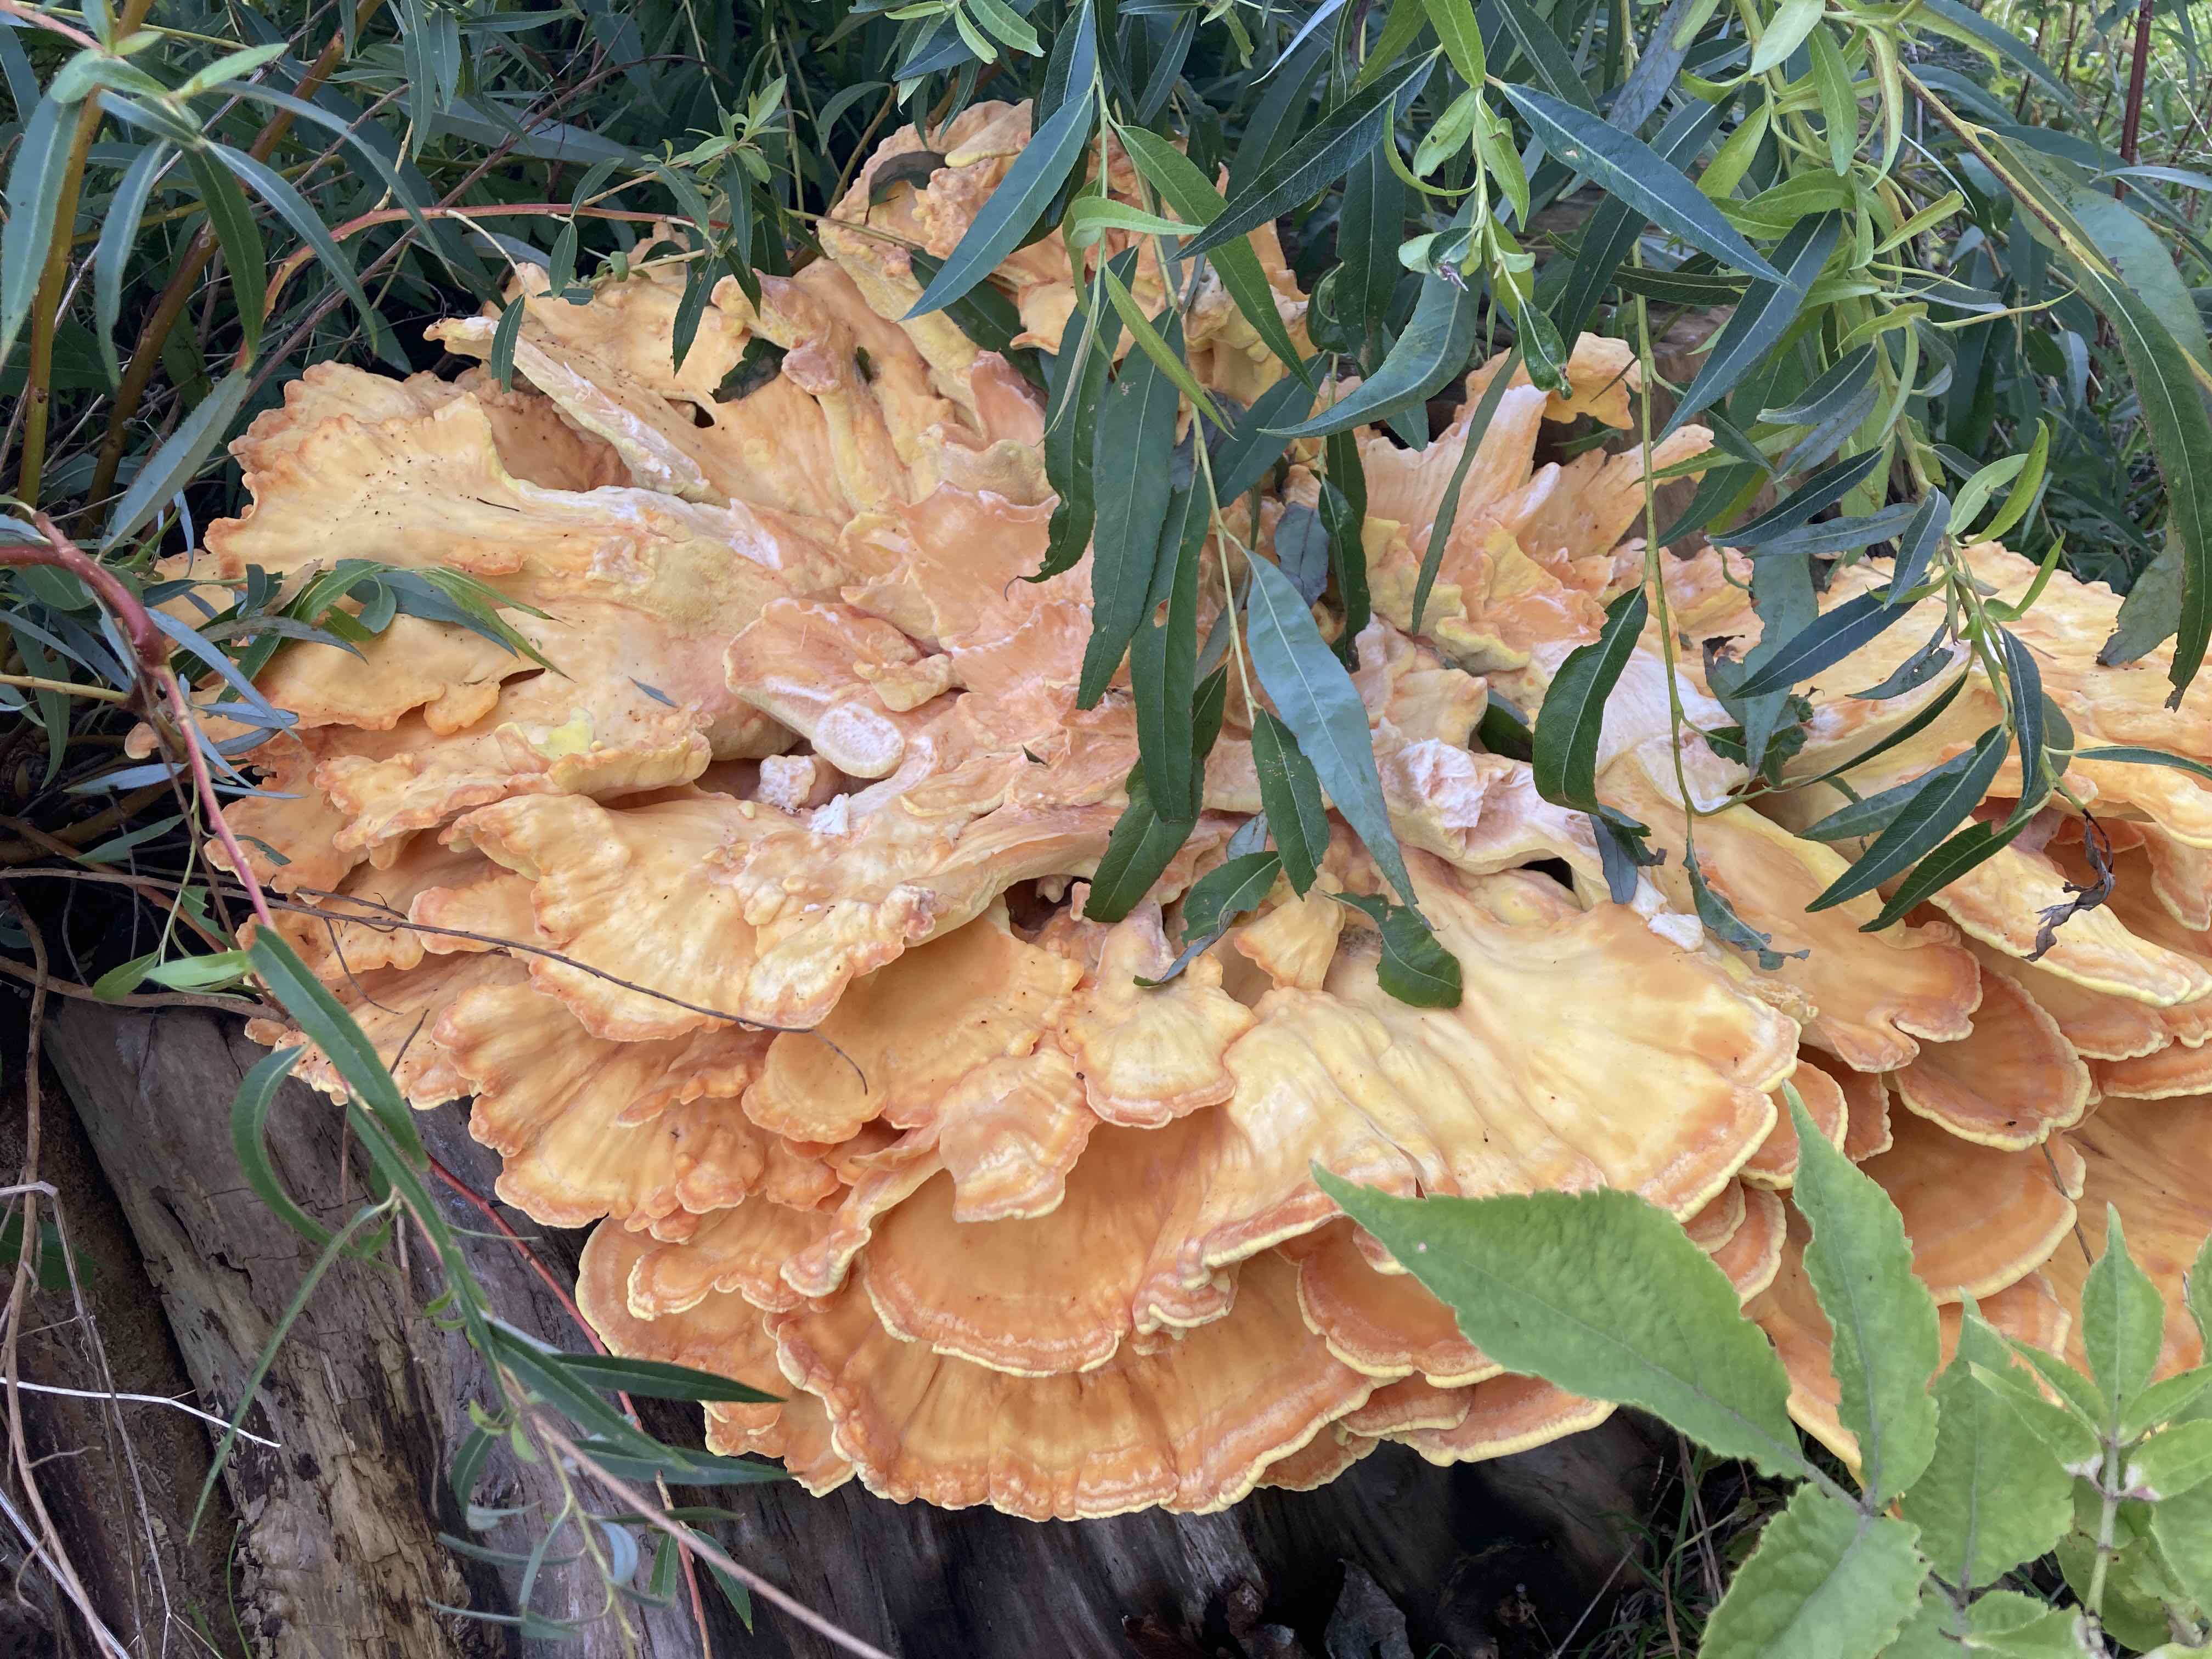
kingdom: Fungi
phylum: Basidiomycota
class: Agaricomycetes
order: Polyporales
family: Laetiporaceae
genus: Laetiporus
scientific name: Laetiporus sulphureus
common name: svovlporesvamp
